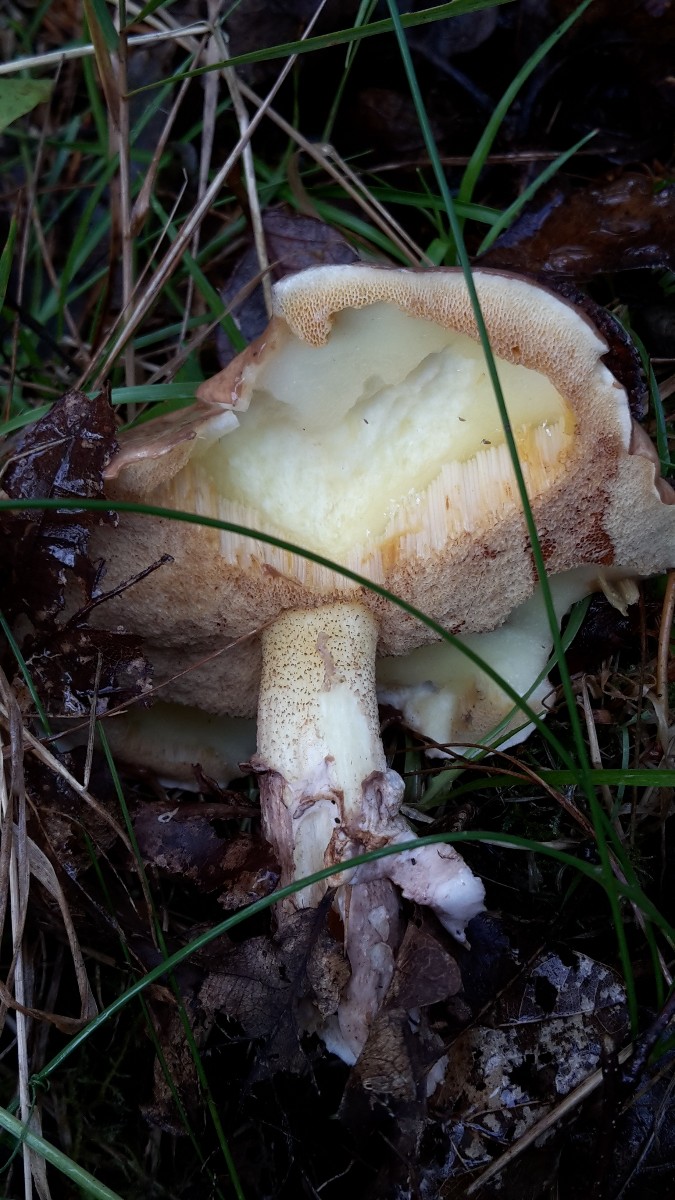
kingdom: Fungi
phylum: Basidiomycota
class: Agaricomycetes
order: Boletales
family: Suillaceae
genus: Suillus
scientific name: Suillus granulatus
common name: kornet slimrørhat
